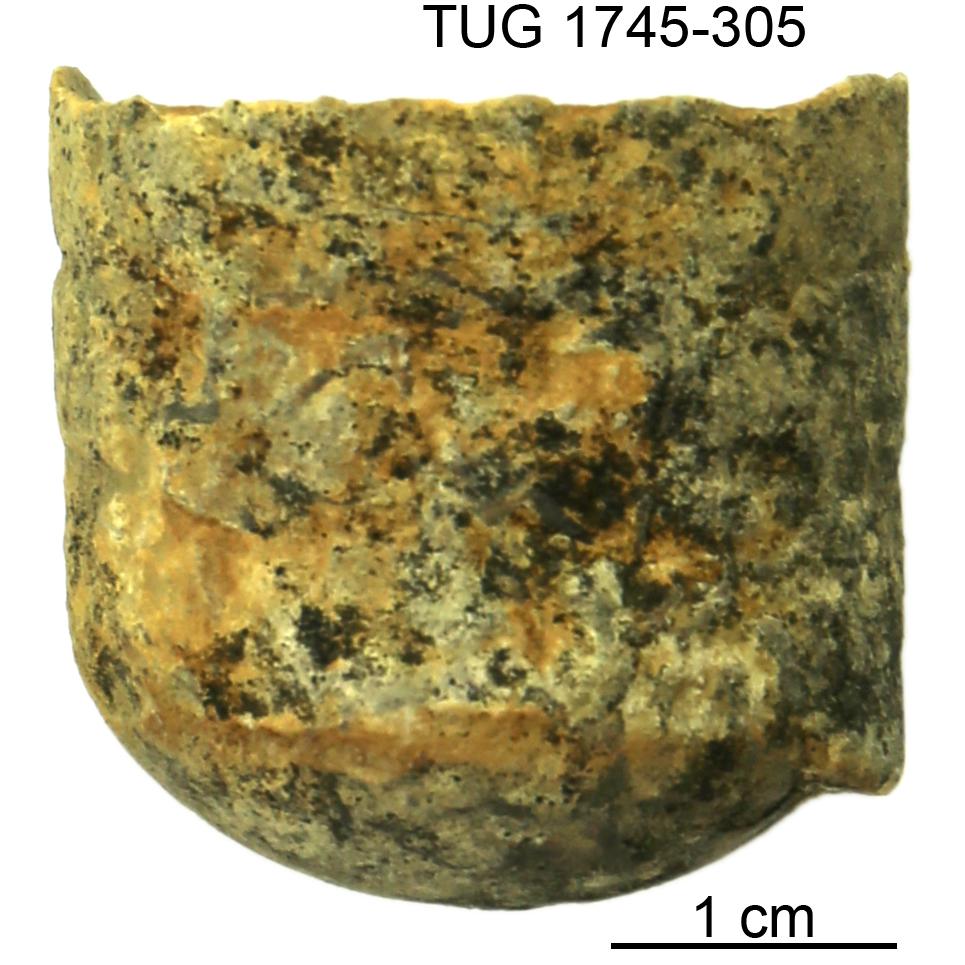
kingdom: Animalia
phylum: Mollusca
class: Cephalopoda
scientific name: Cephalopoda
